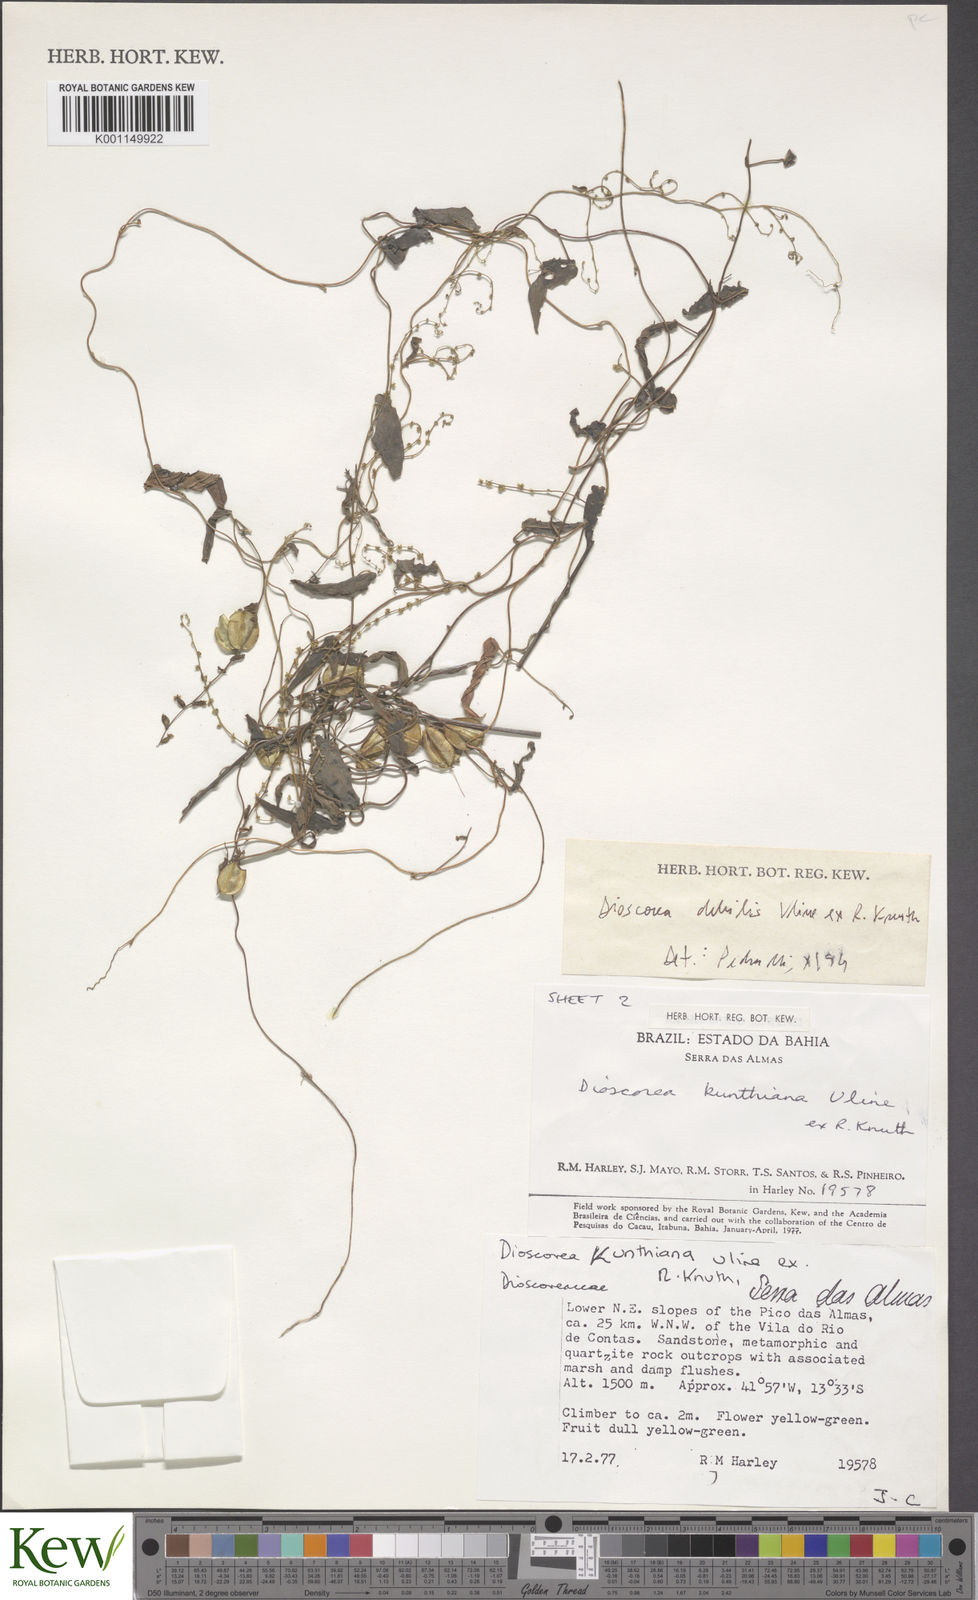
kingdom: Plantae
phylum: Tracheophyta
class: Liliopsida
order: Dioscoreales
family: Dioscoreaceae
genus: Dioscorea
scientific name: Dioscorea debilis
